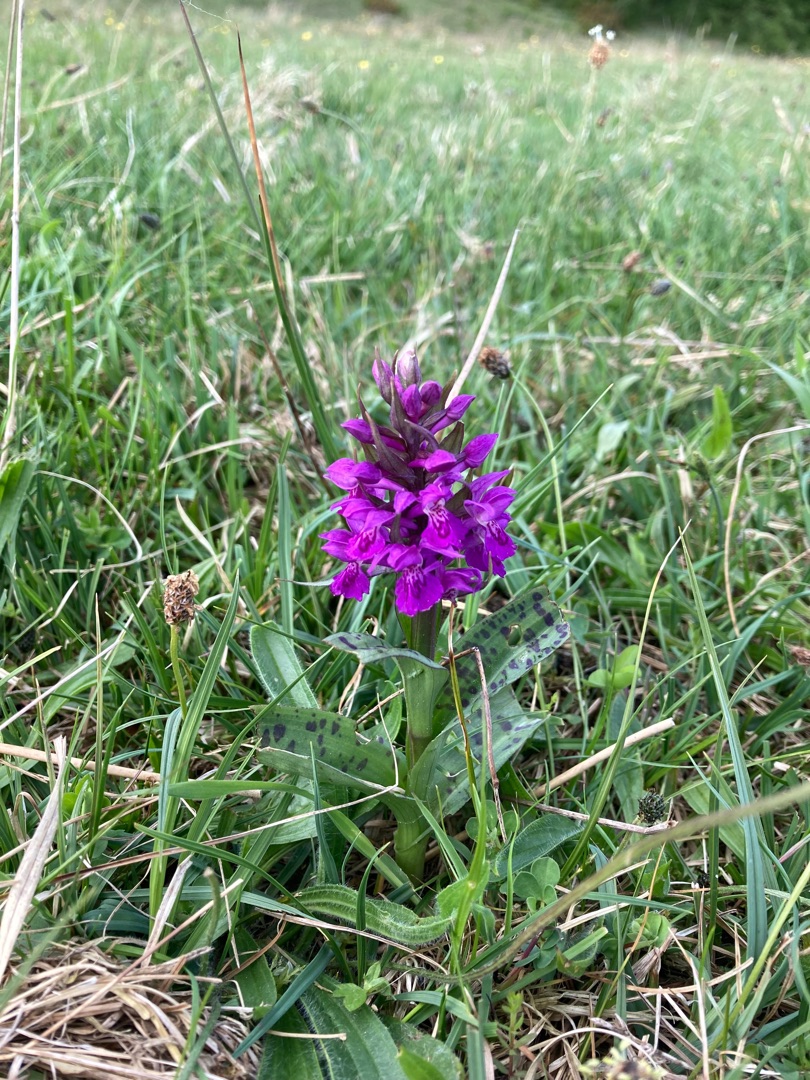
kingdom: Plantae
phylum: Tracheophyta
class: Liliopsida
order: Asparagales
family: Orchidaceae
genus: Dactylorhiza
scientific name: Dactylorhiza majalis
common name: Maj-gøgeurt
